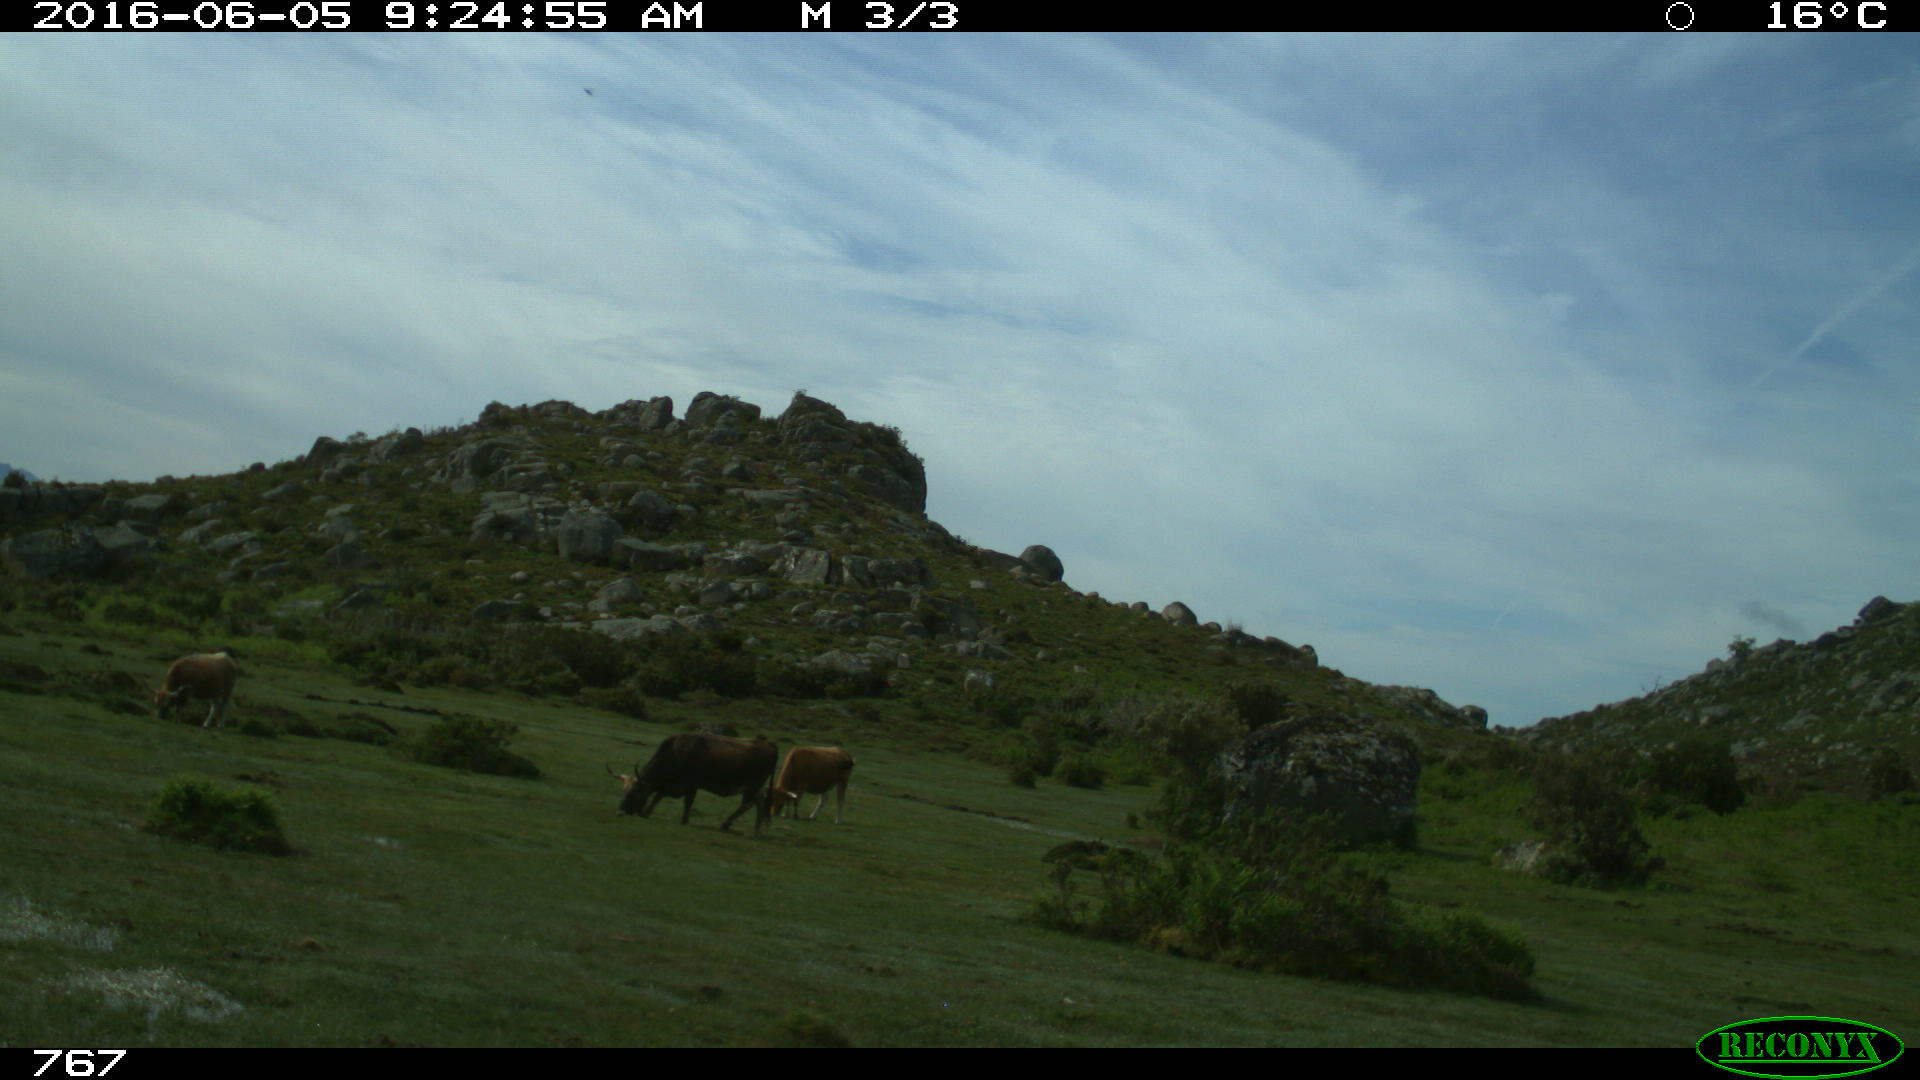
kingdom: Animalia
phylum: Chordata
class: Mammalia
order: Artiodactyla
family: Bovidae
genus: Bos
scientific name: Bos taurus
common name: Domesticated cattle
